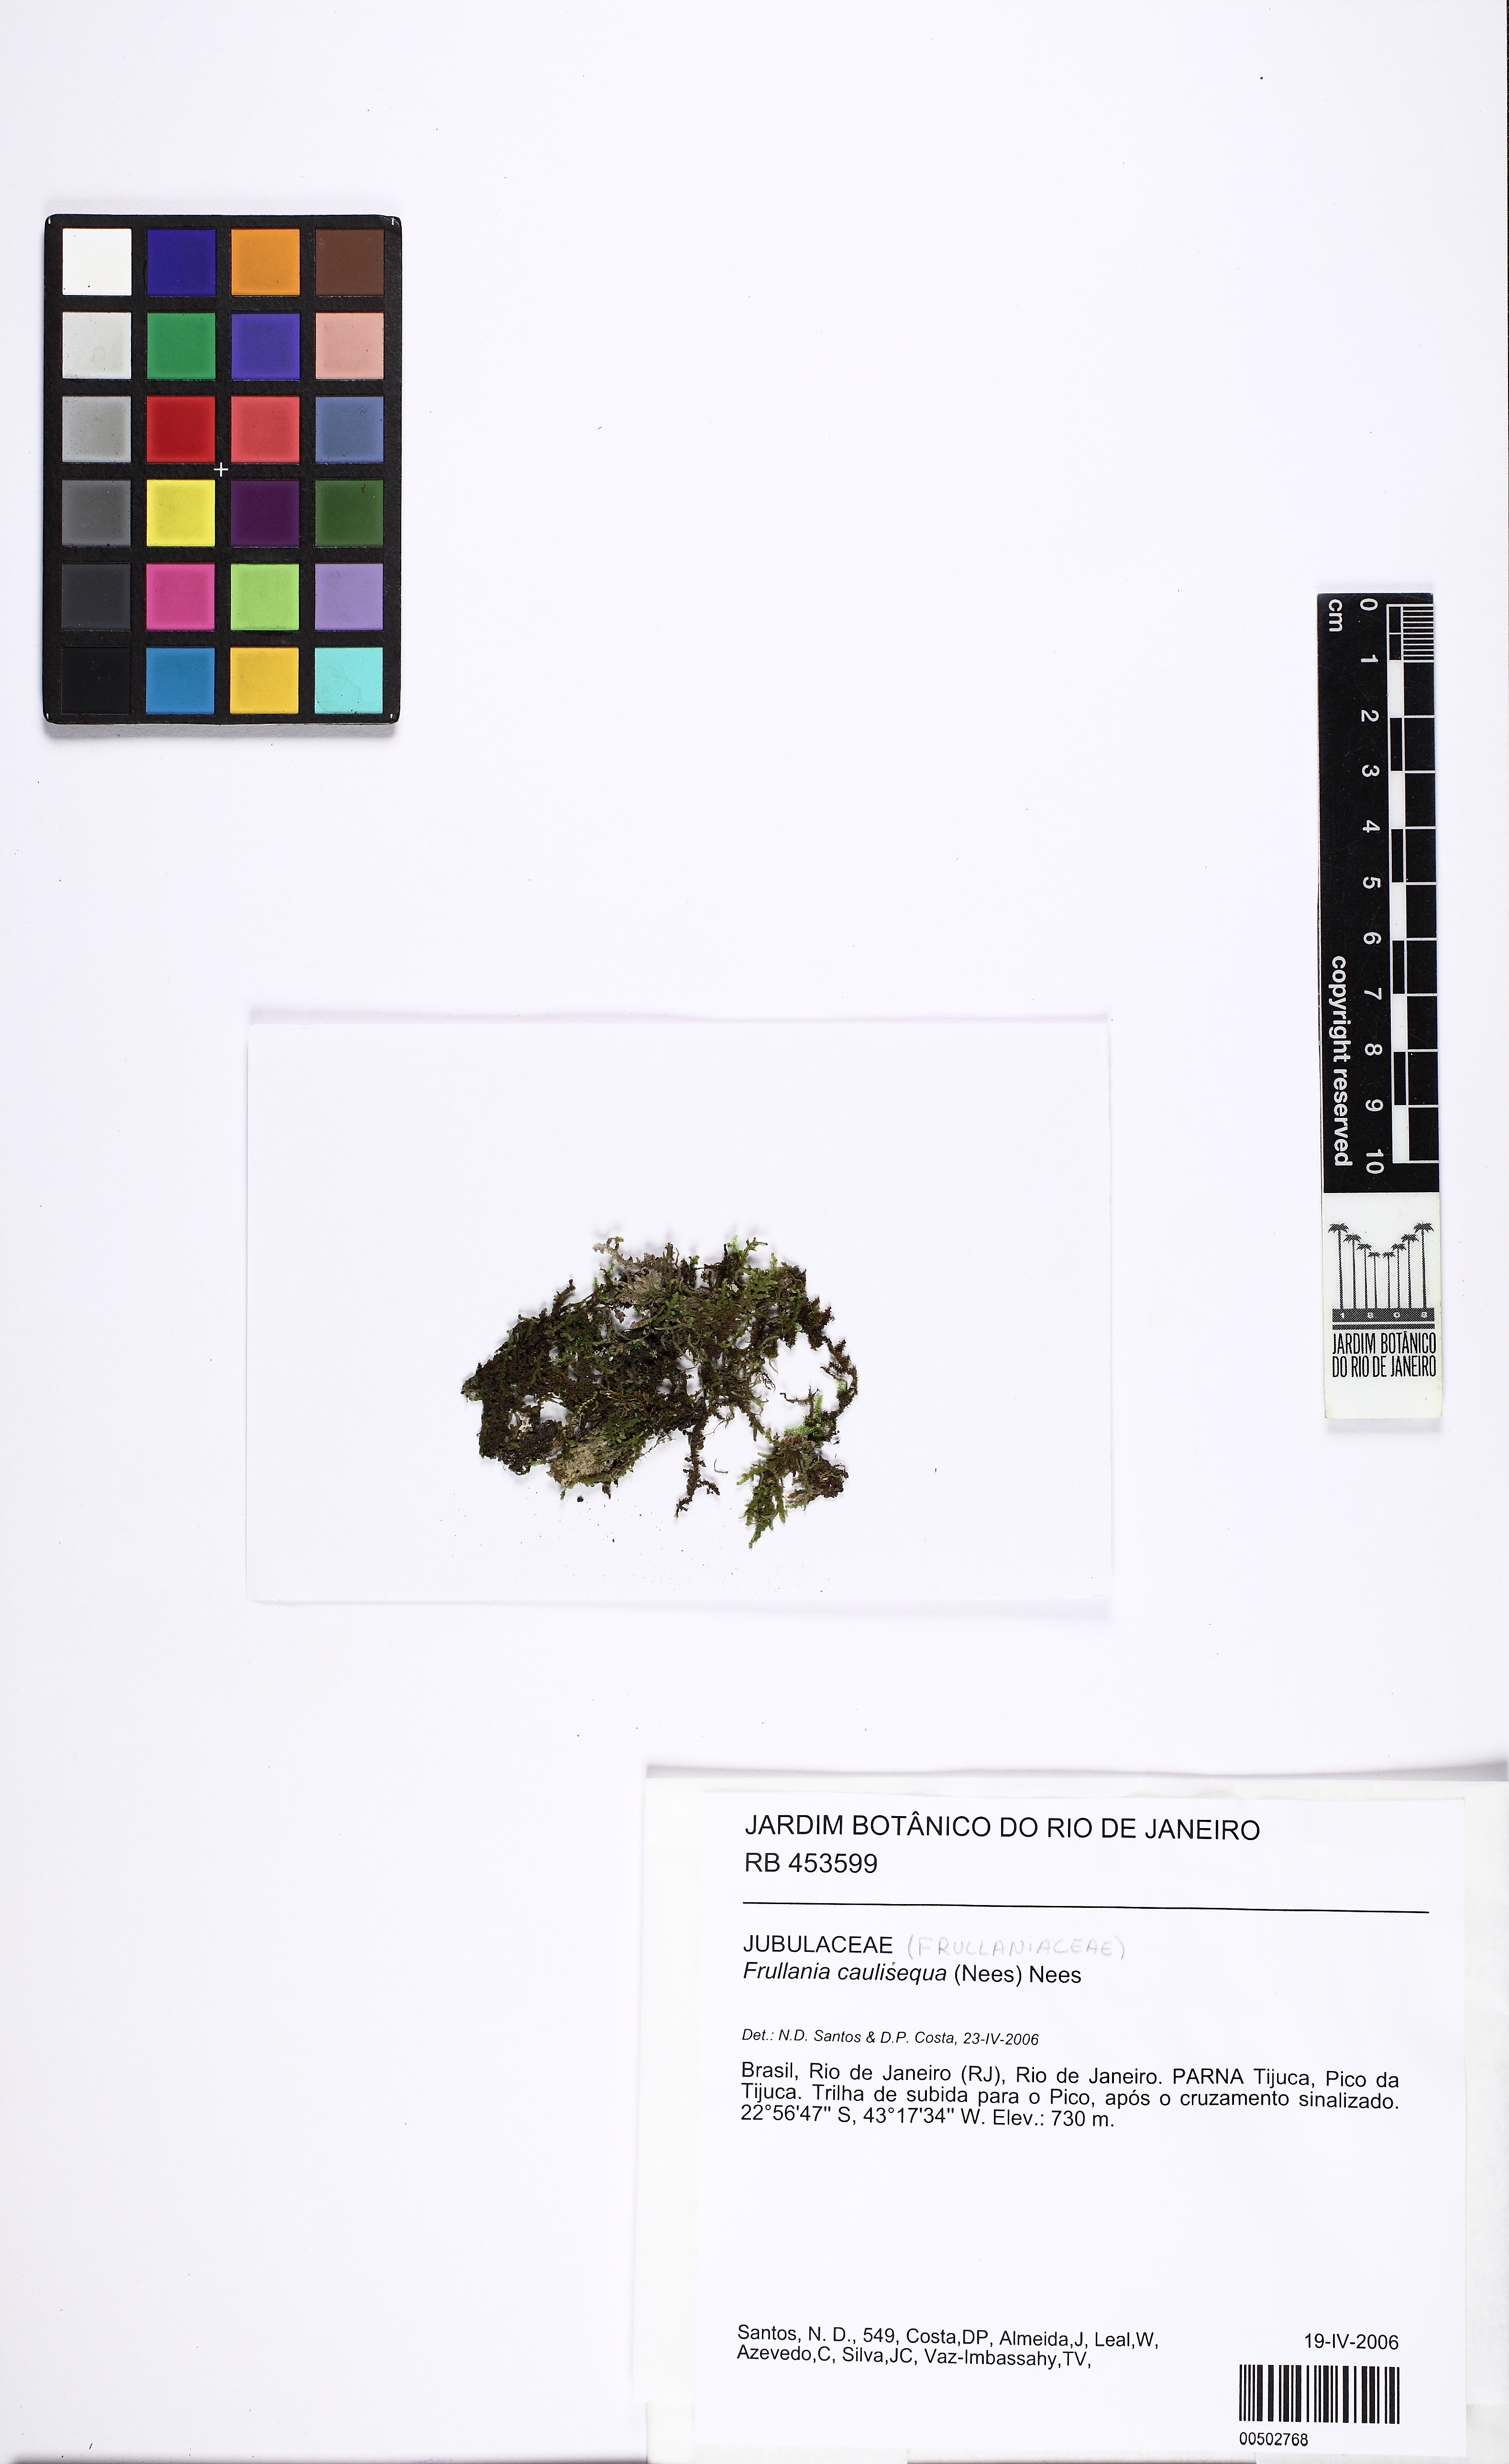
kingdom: Plantae
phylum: Marchantiophyta
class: Jungermanniopsida
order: Porellales
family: Frullaniaceae
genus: Frullania
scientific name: Frullania lindenbergii
